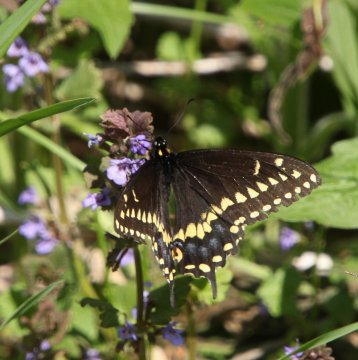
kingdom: Animalia
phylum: Arthropoda
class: Insecta
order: Lepidoptera
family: Papilionidae
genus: Papilio
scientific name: Papilio polyxenes
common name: Black Swallowtail
